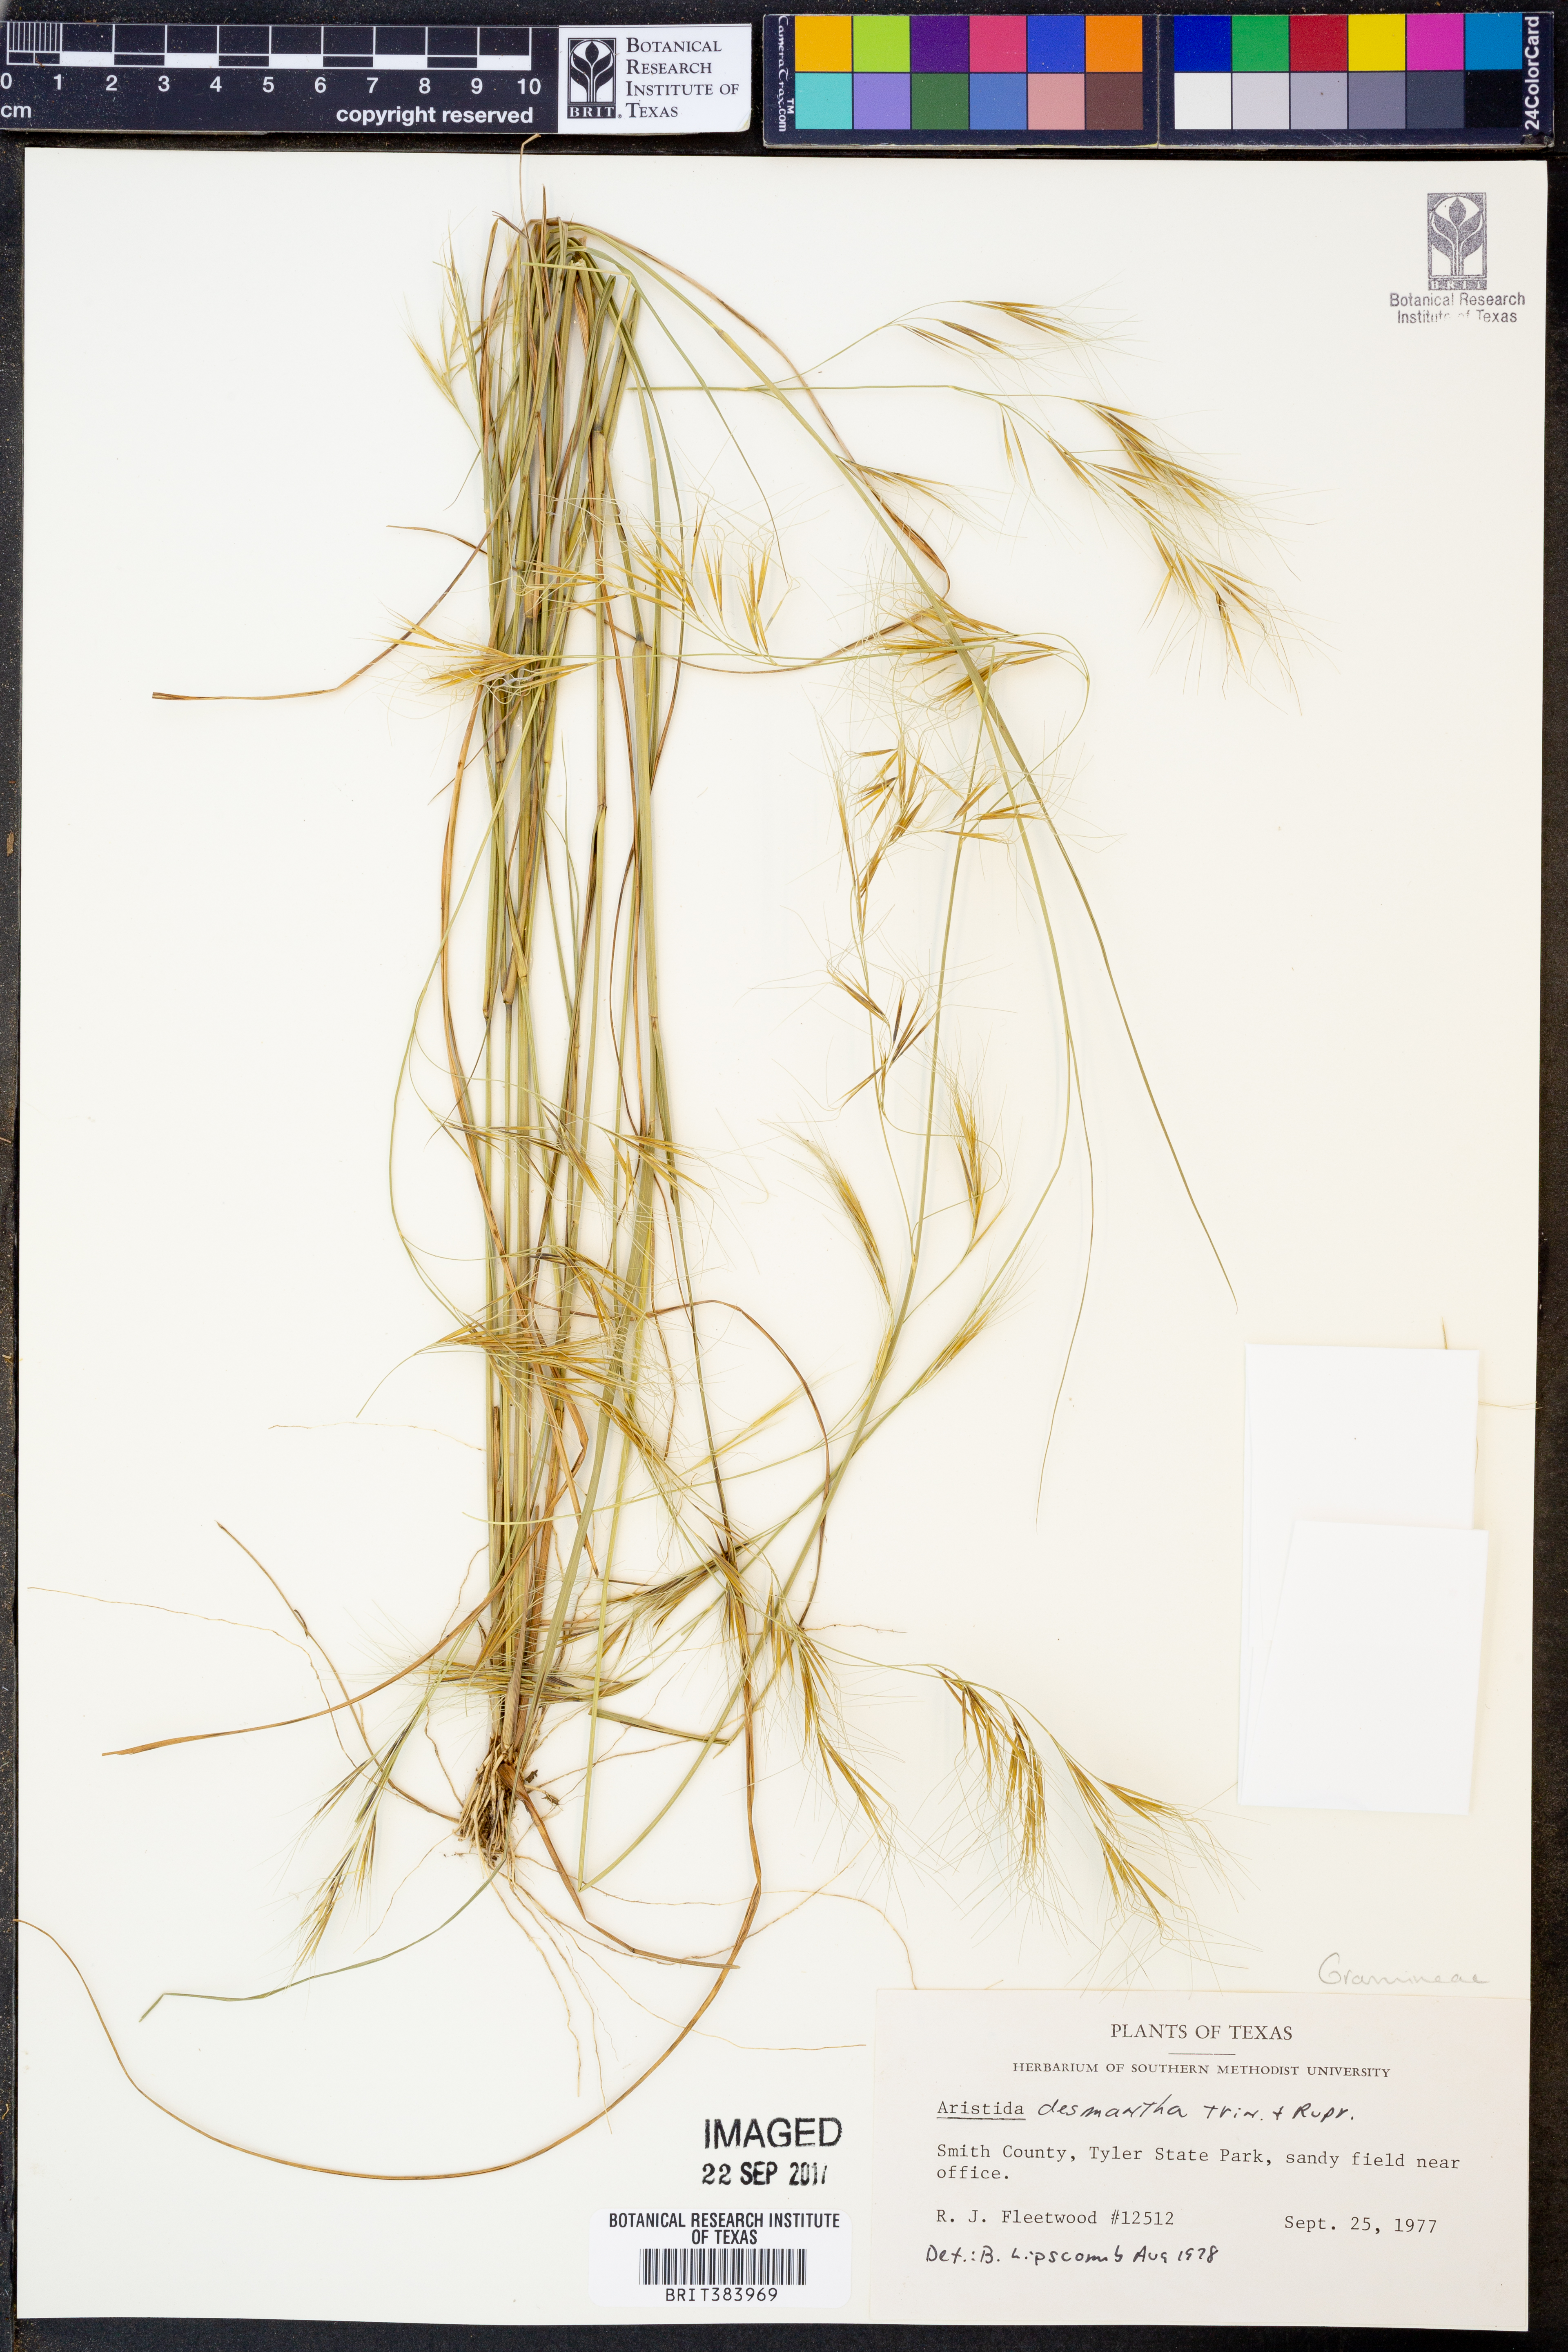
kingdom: Plantae
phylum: Tracheophyta
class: Liliopsida
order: Poales
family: Poaceae
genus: Aristida
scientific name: Aristida desmantha
